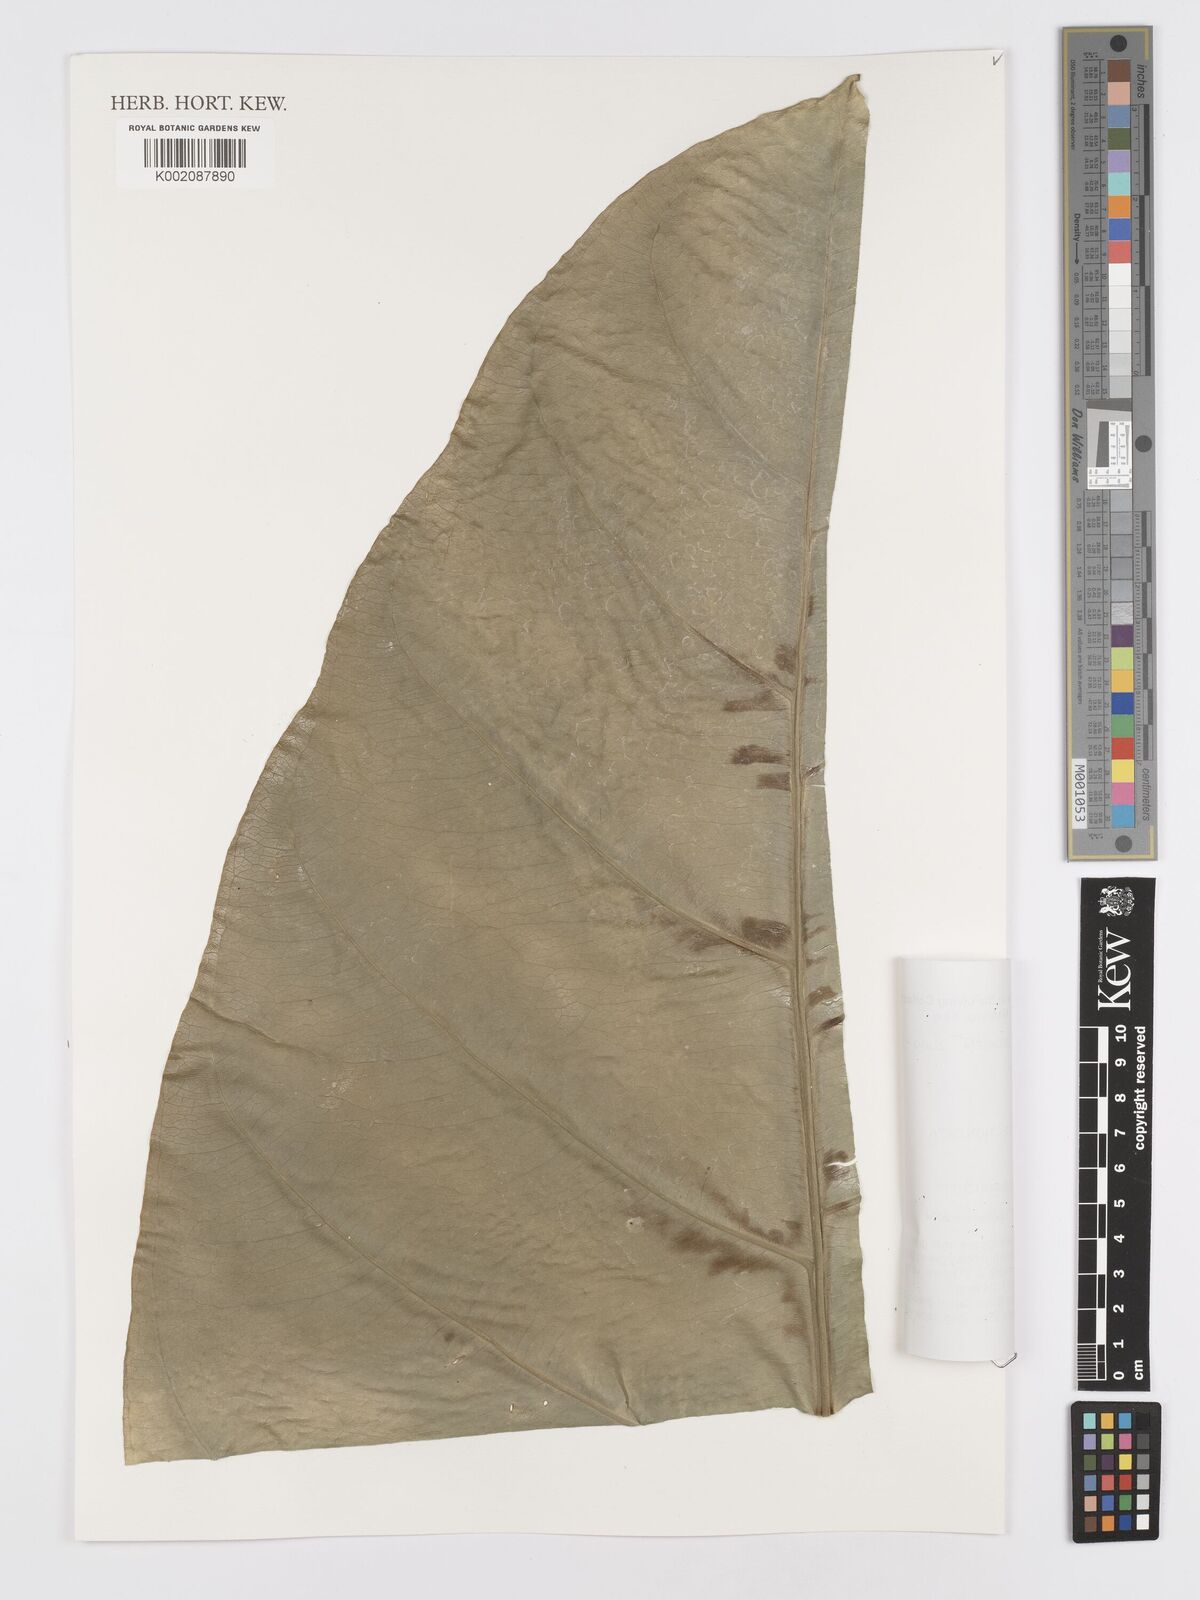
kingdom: Plantae
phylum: Tracheophyta
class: Liliopsida
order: Alismatales
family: Araceae
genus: Anthurium
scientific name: Anthurium plowmanii
